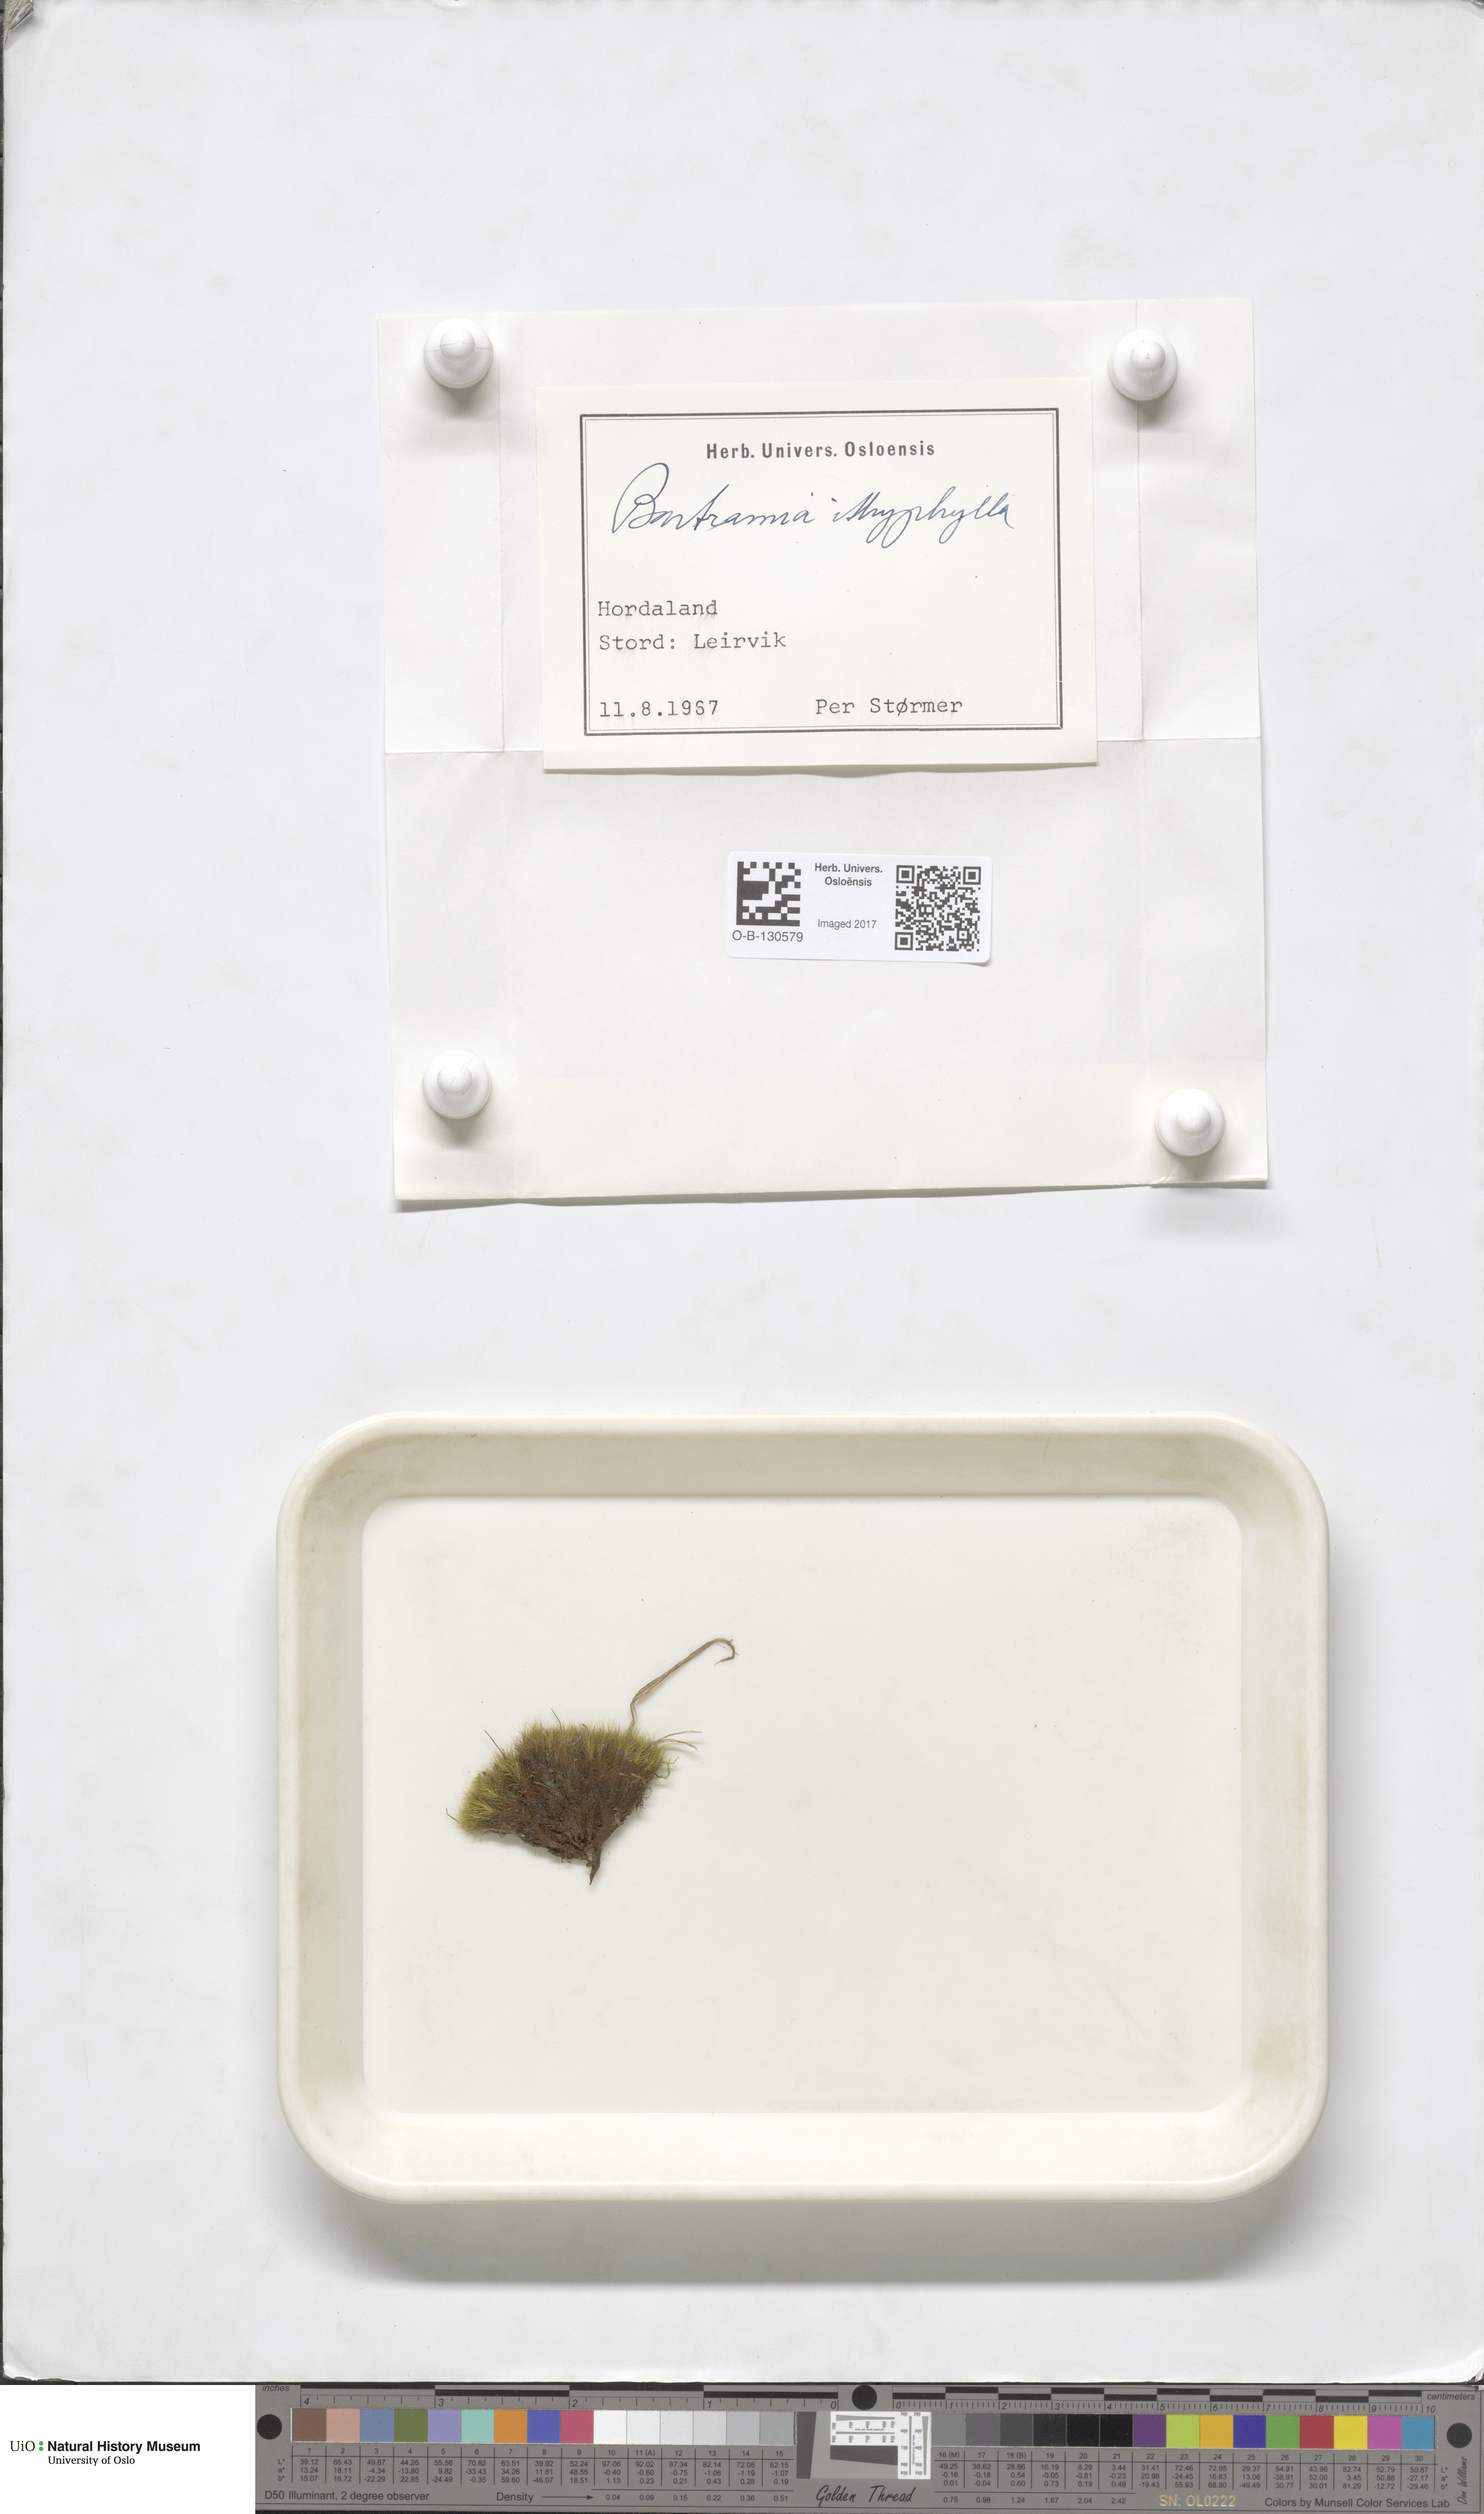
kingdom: Plantae
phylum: Bryophyta
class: Bryopsida
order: Bartramiales
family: Bartramiaceae
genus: Bartramia
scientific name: Bartramia ithyphylla
